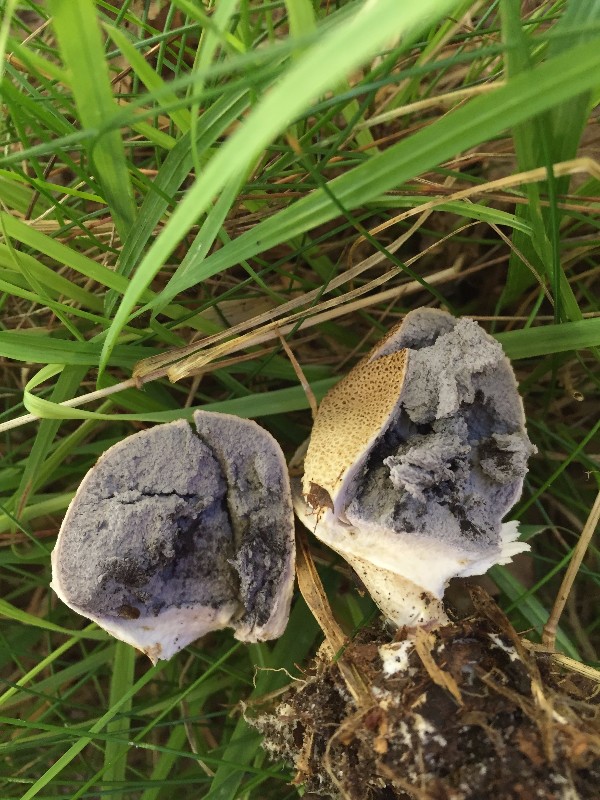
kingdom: Fungi
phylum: Basidiomycota
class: Agaricomycetes
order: Boletales
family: Sclerodermataceae
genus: Scleroderma
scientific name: Scleroderma verrucosum
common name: stilket bruskbold
